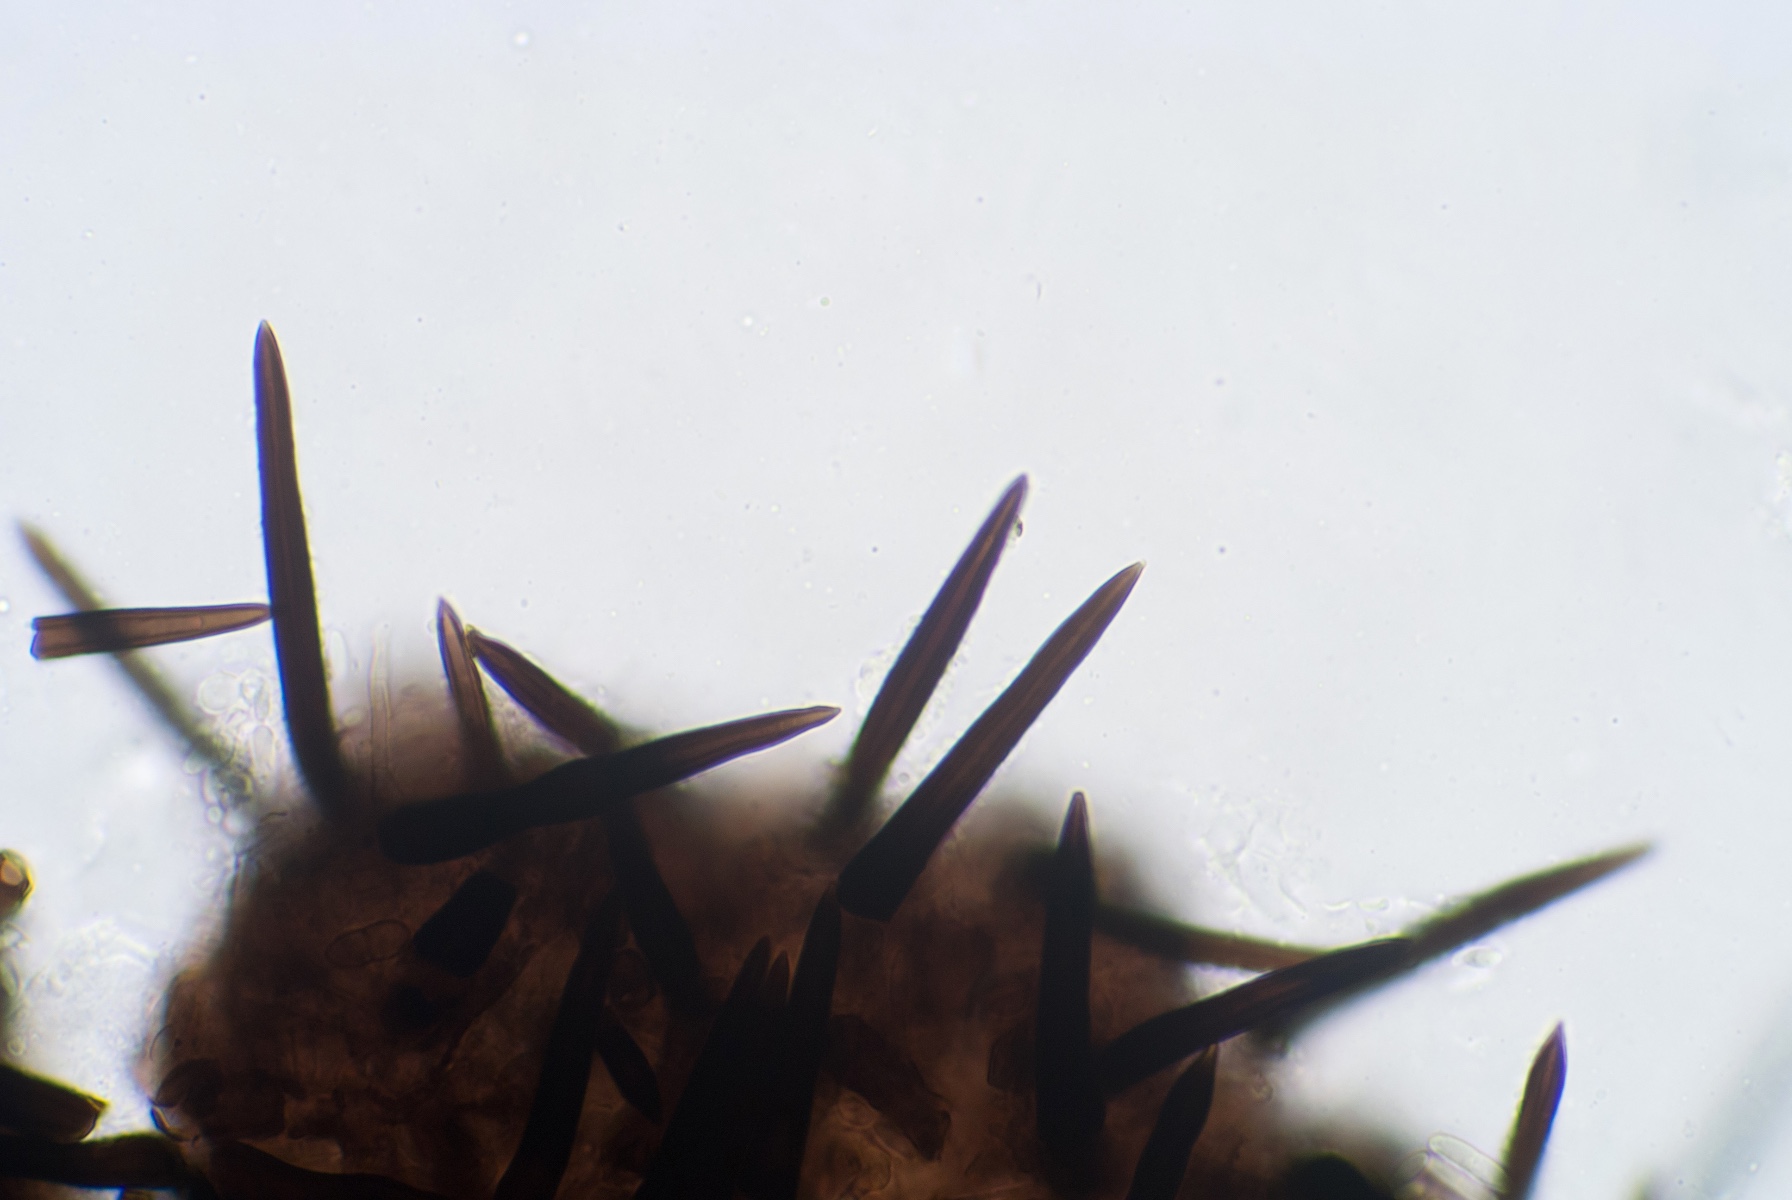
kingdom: Fungi
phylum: Ascomycota
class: Sordariomycetes
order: Hypocreales
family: Niessliaceae
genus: Niesslia
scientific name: Niesslia exilis
